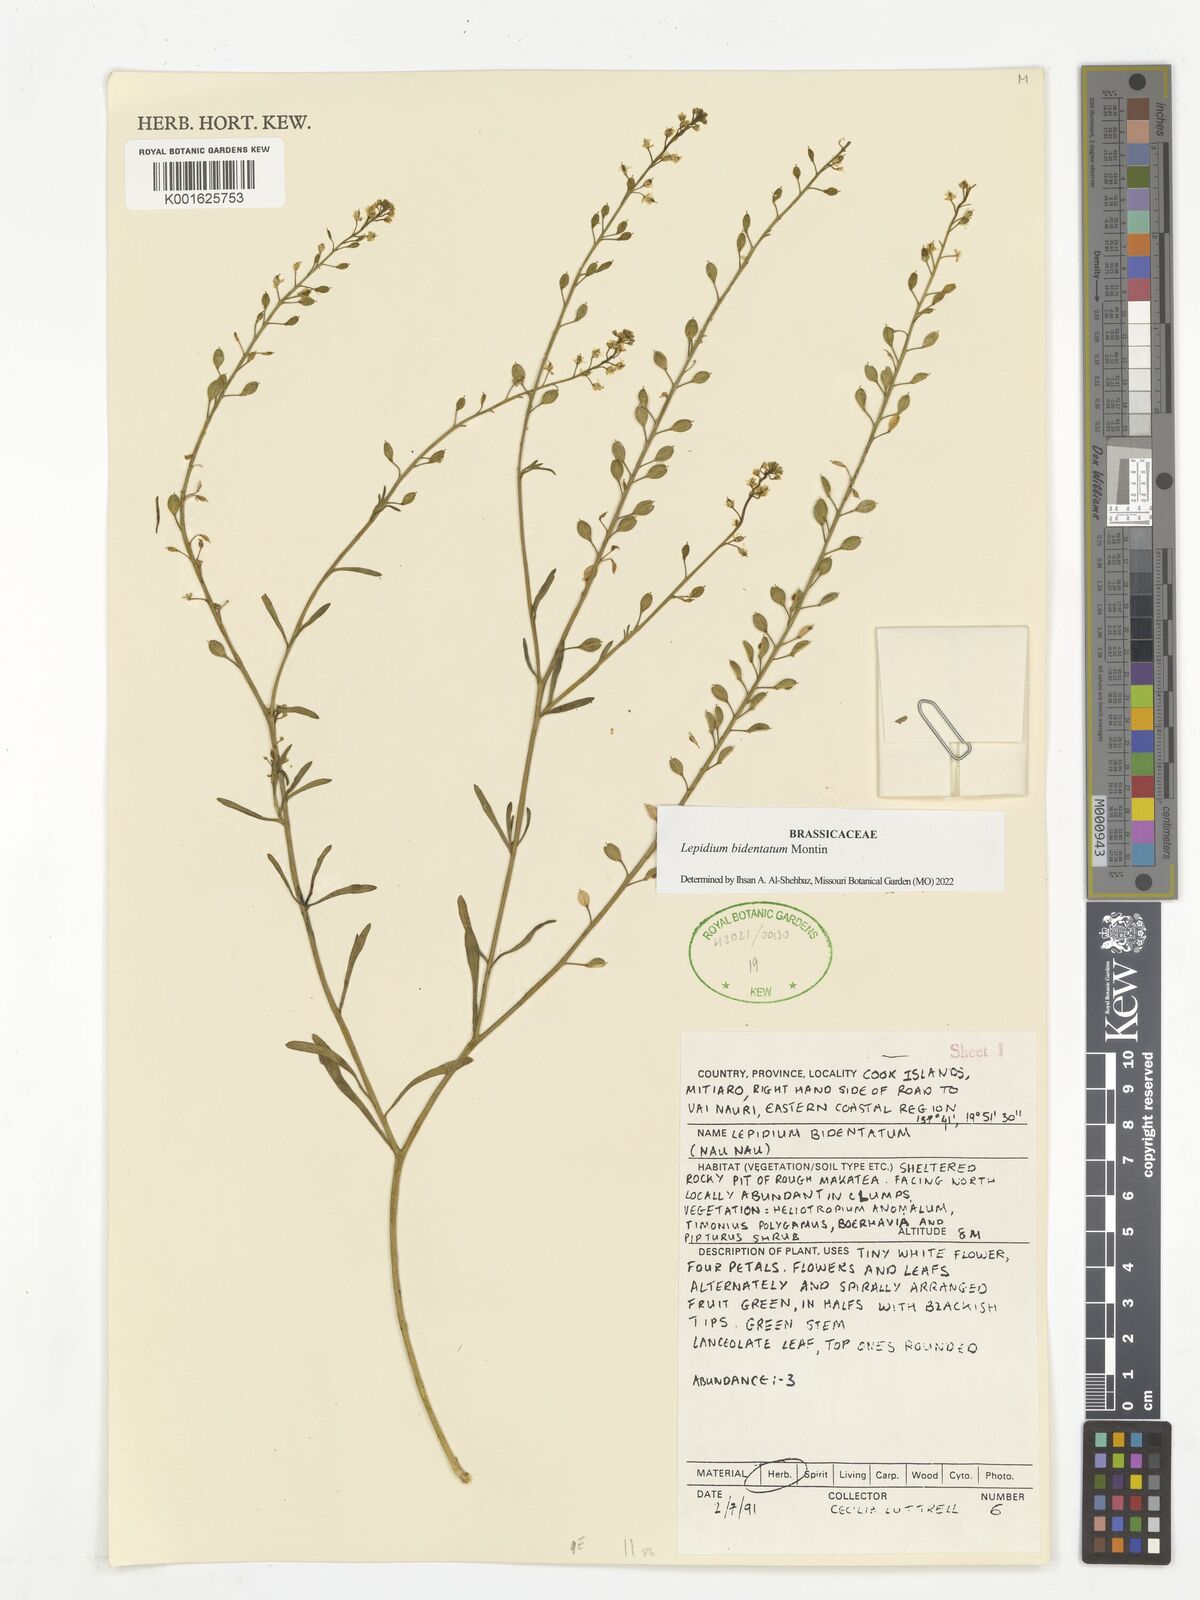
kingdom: Plantae
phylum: Tracheophyta
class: Magnoliopsida
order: Brassicales
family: Brassicaceae
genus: Lepidium
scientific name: Lepidium bidentatum
